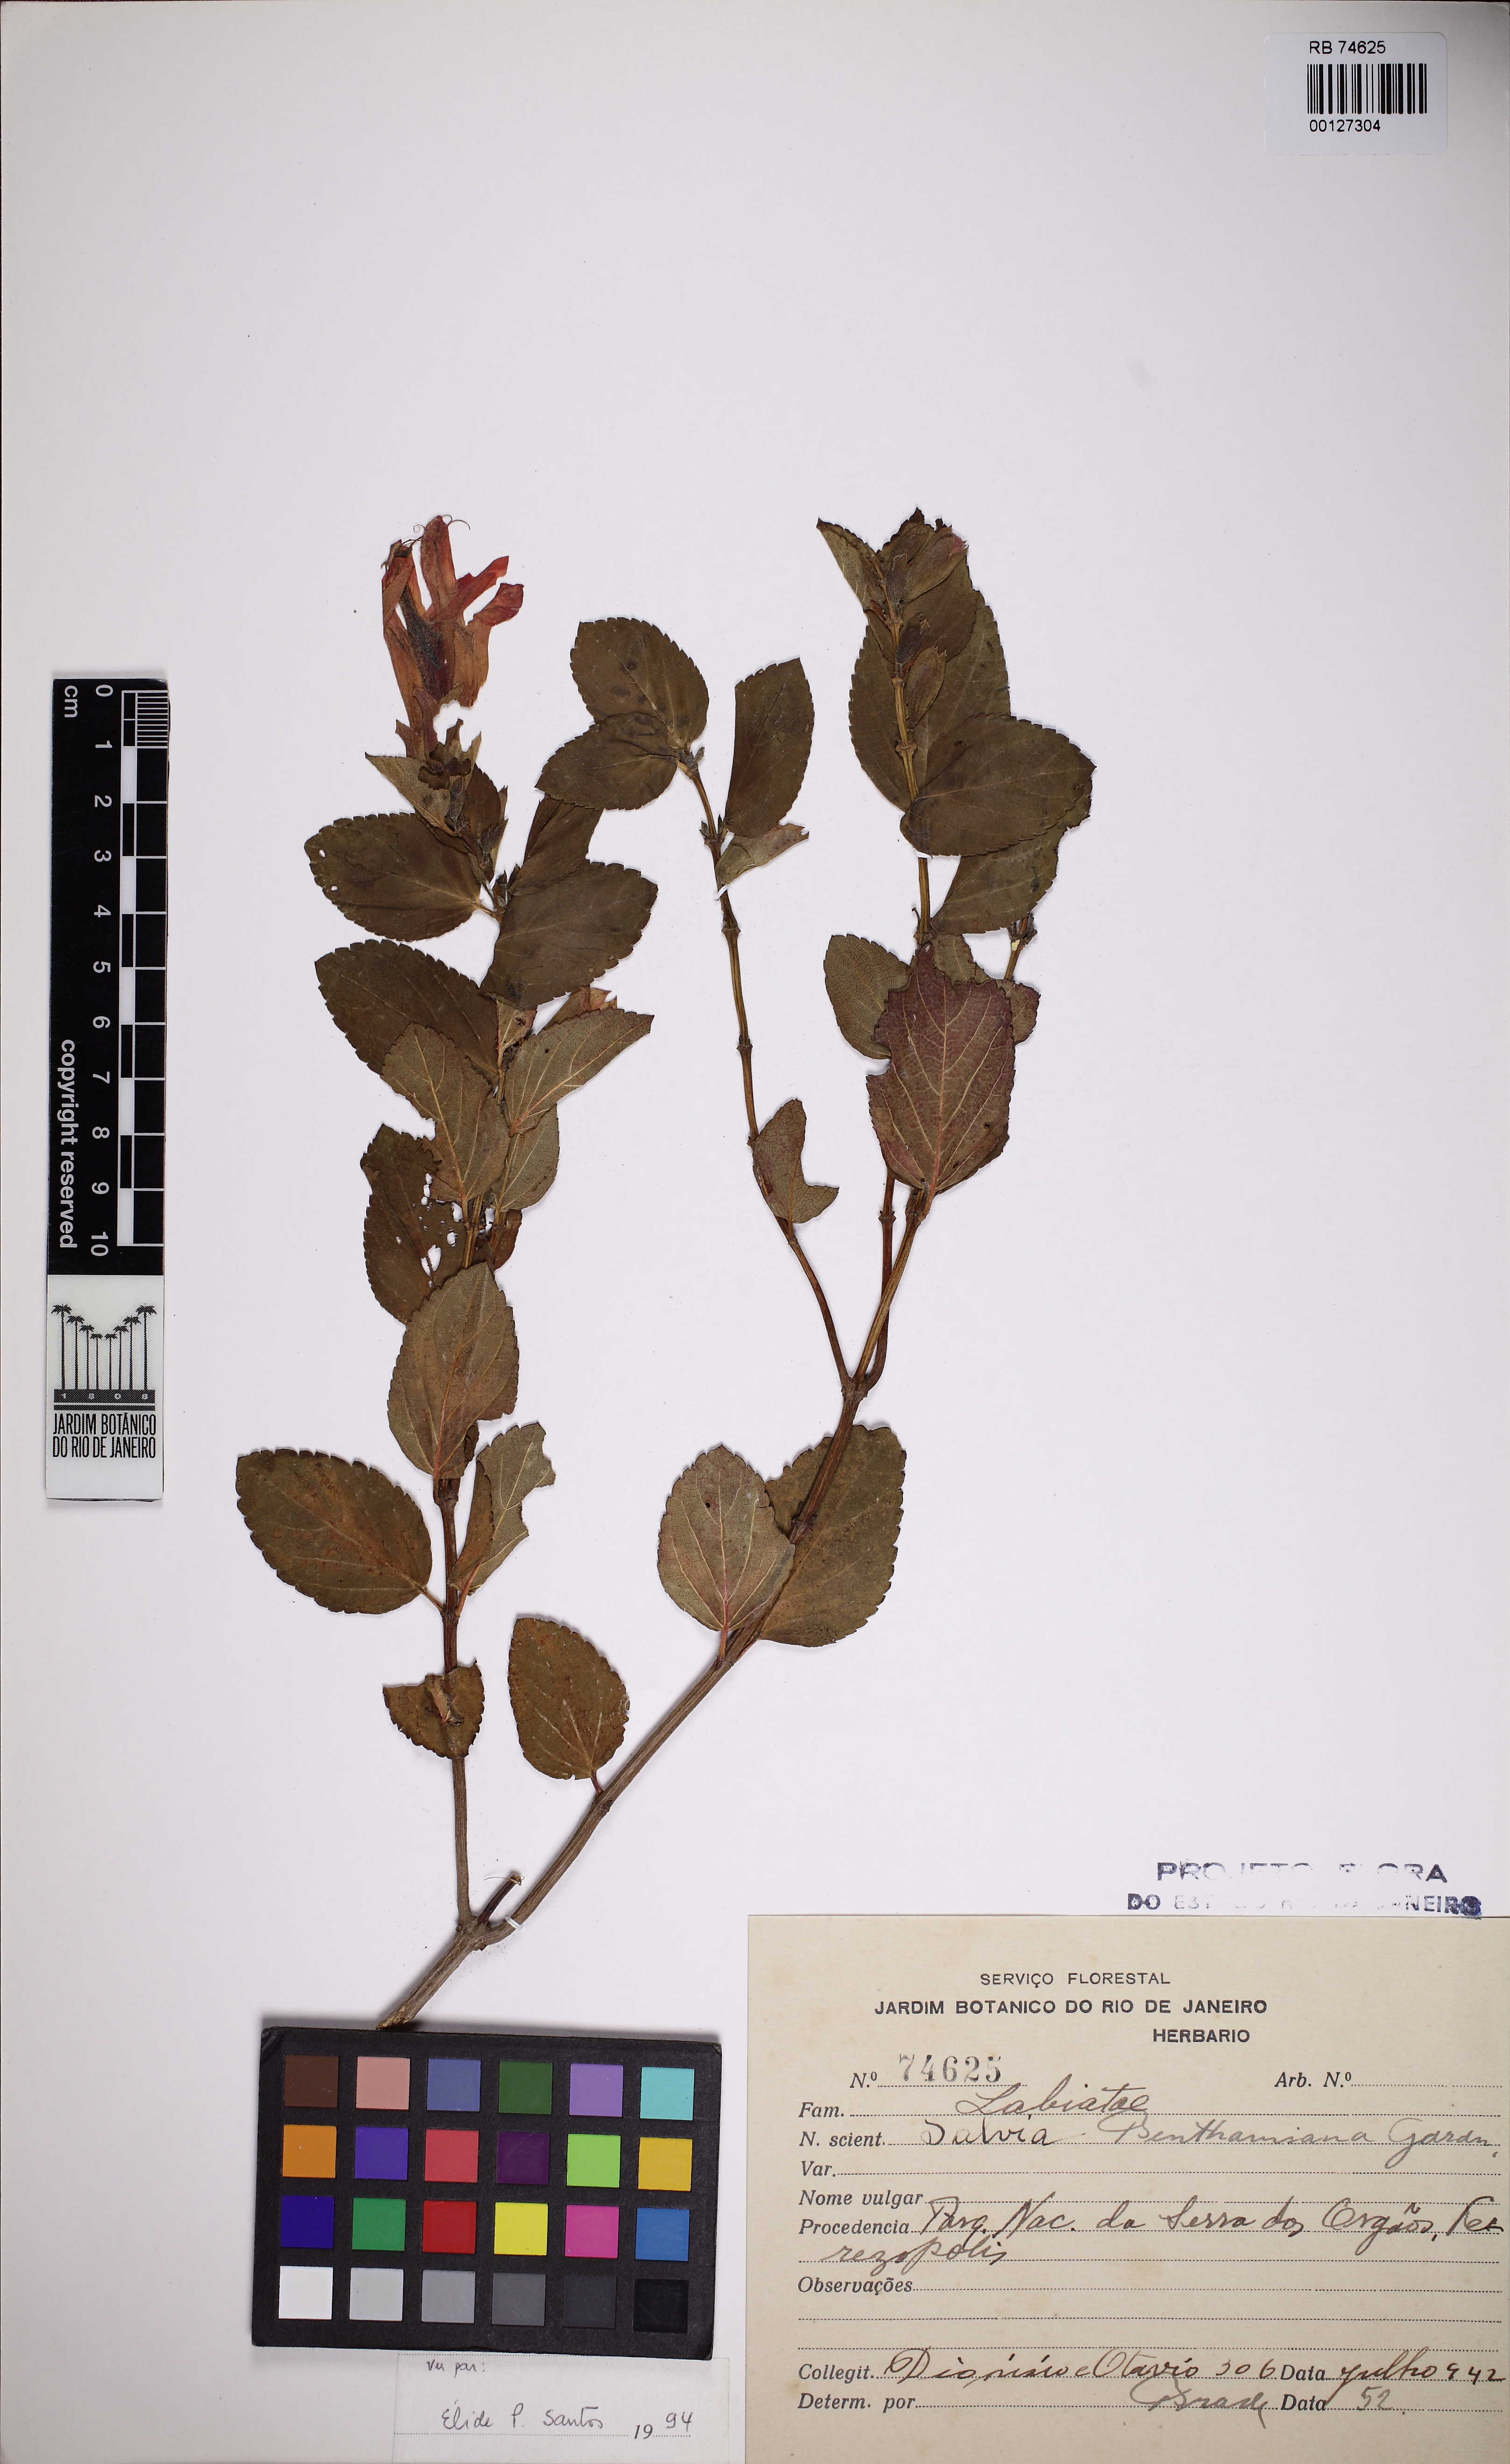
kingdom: Plantae
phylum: Tracheophyta
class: Magnoliopsida
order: Lamiales
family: Lamiaceae
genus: Salvia
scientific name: Salvia benthamiana
